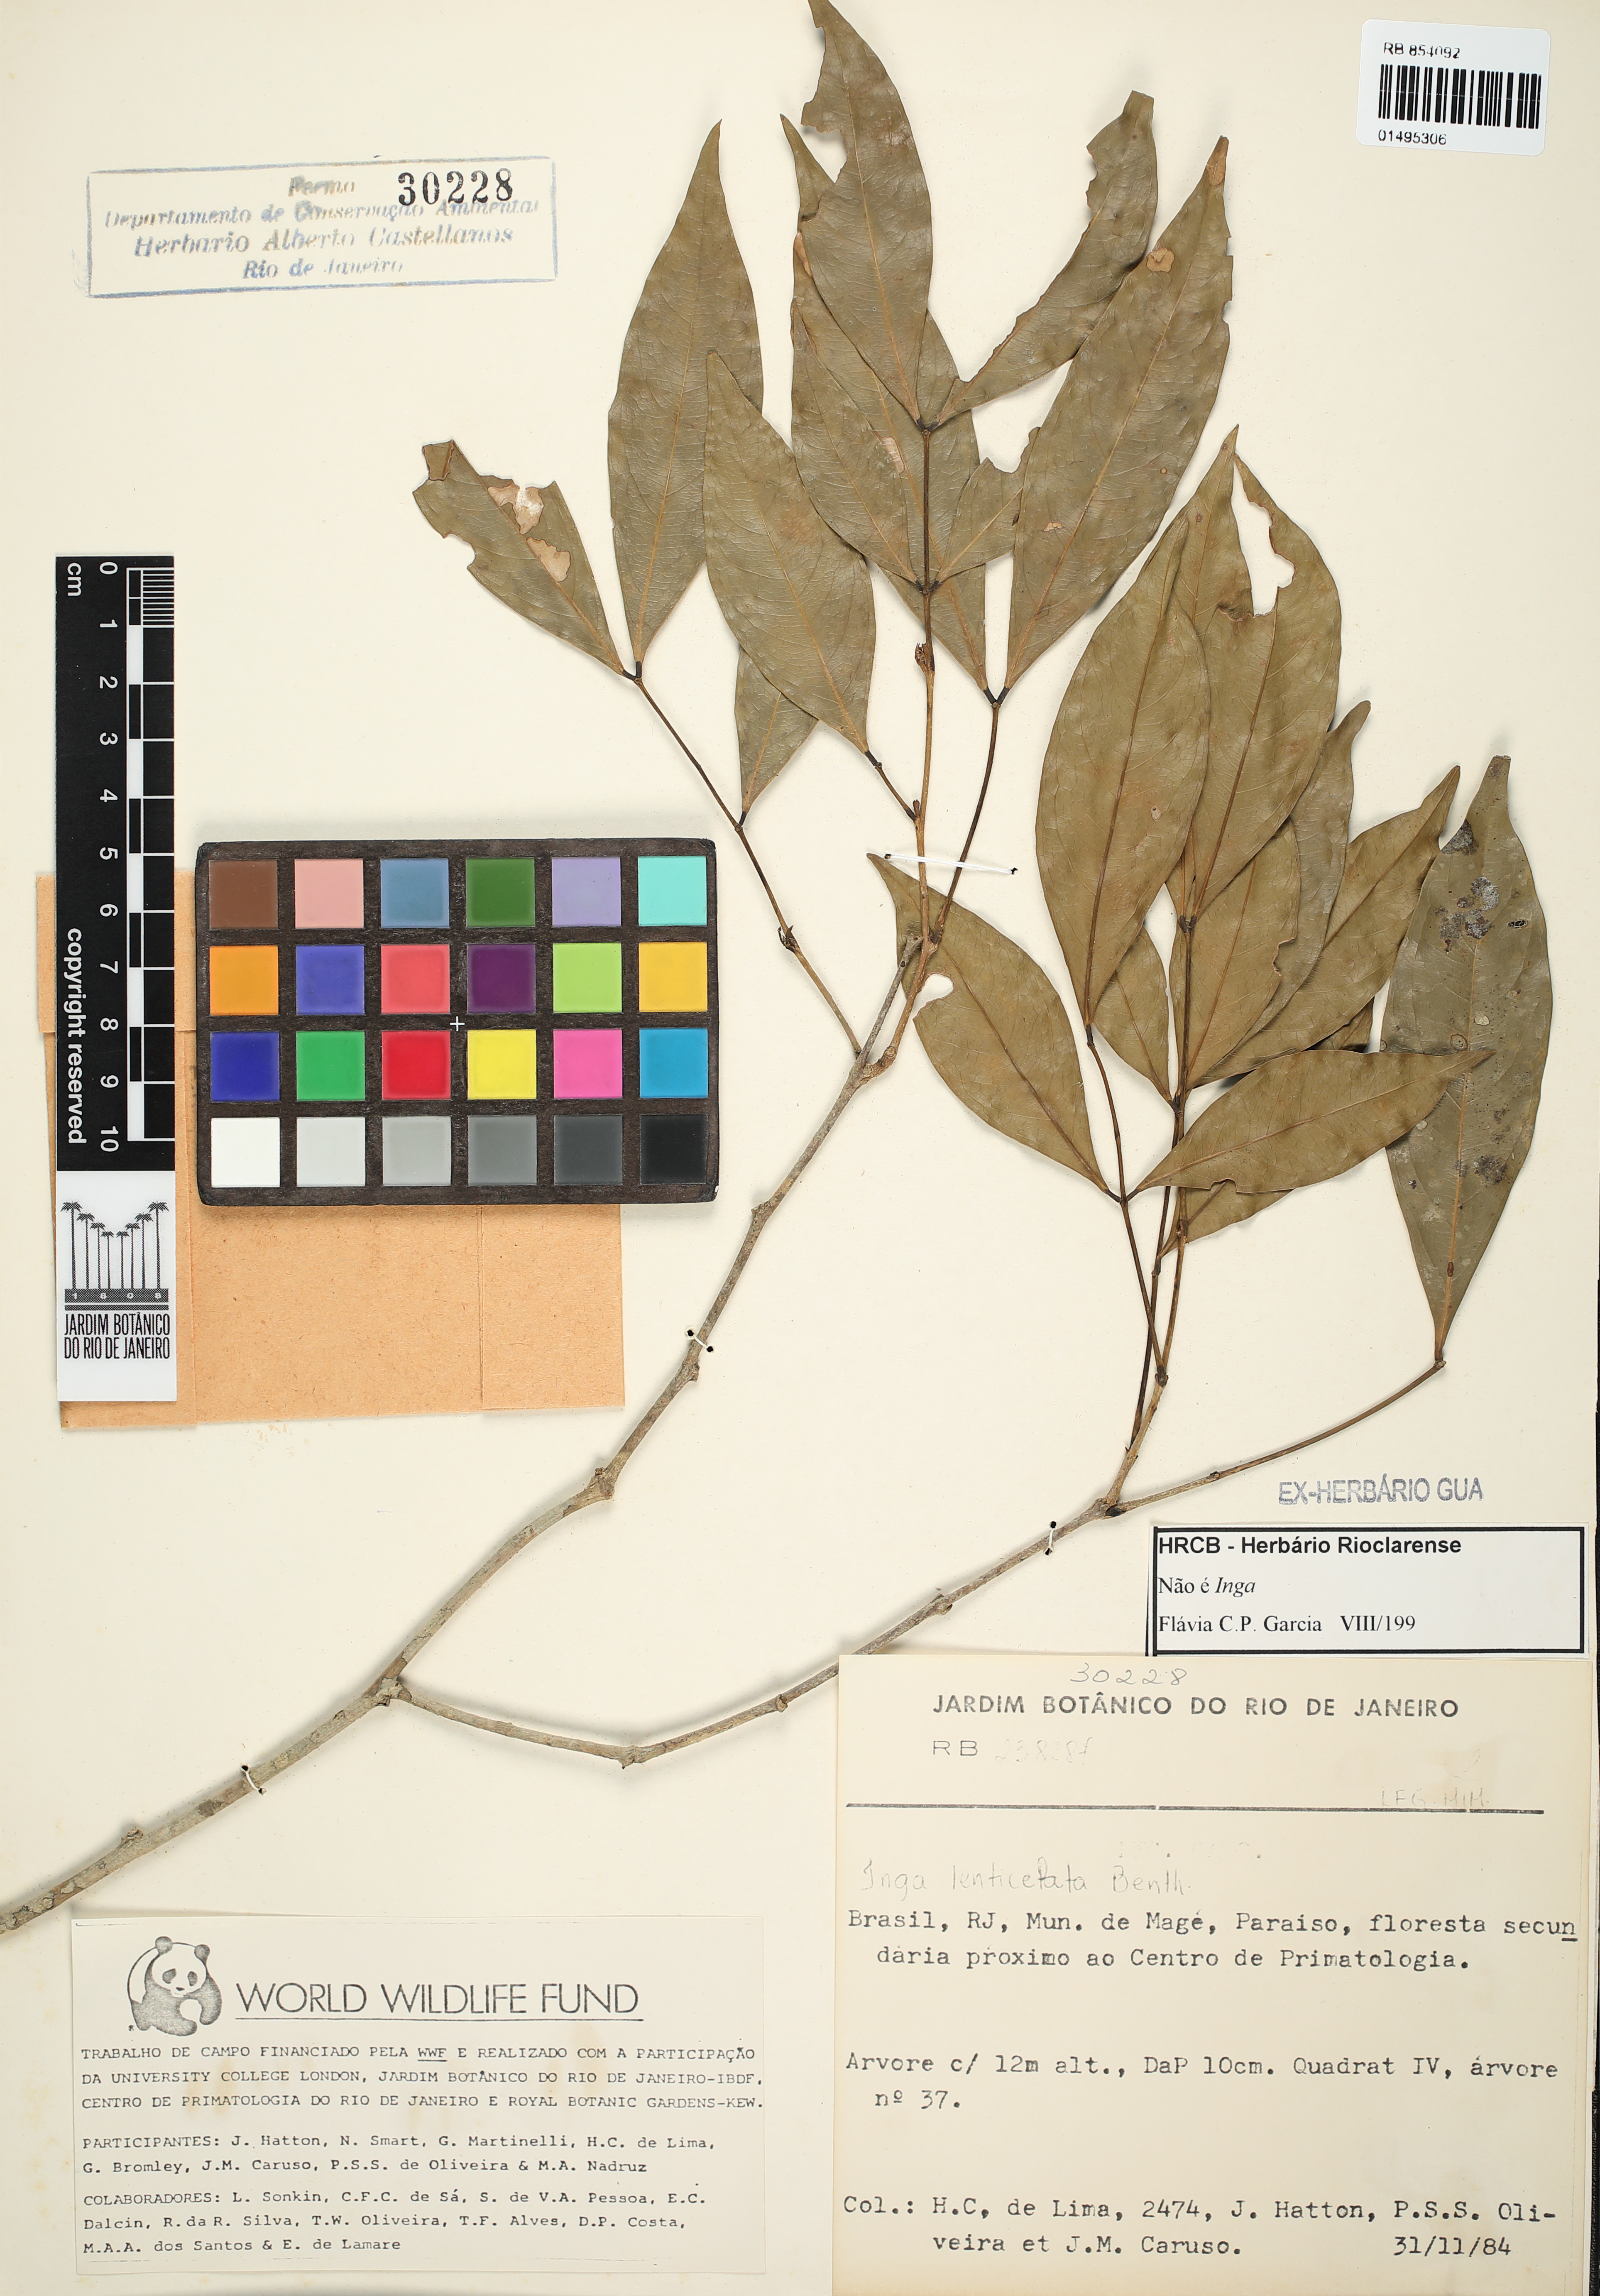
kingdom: Plantae
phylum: Tracheophyta
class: Magnoliopsida
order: Fabales
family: Fabaceae
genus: Inga
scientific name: Inga
